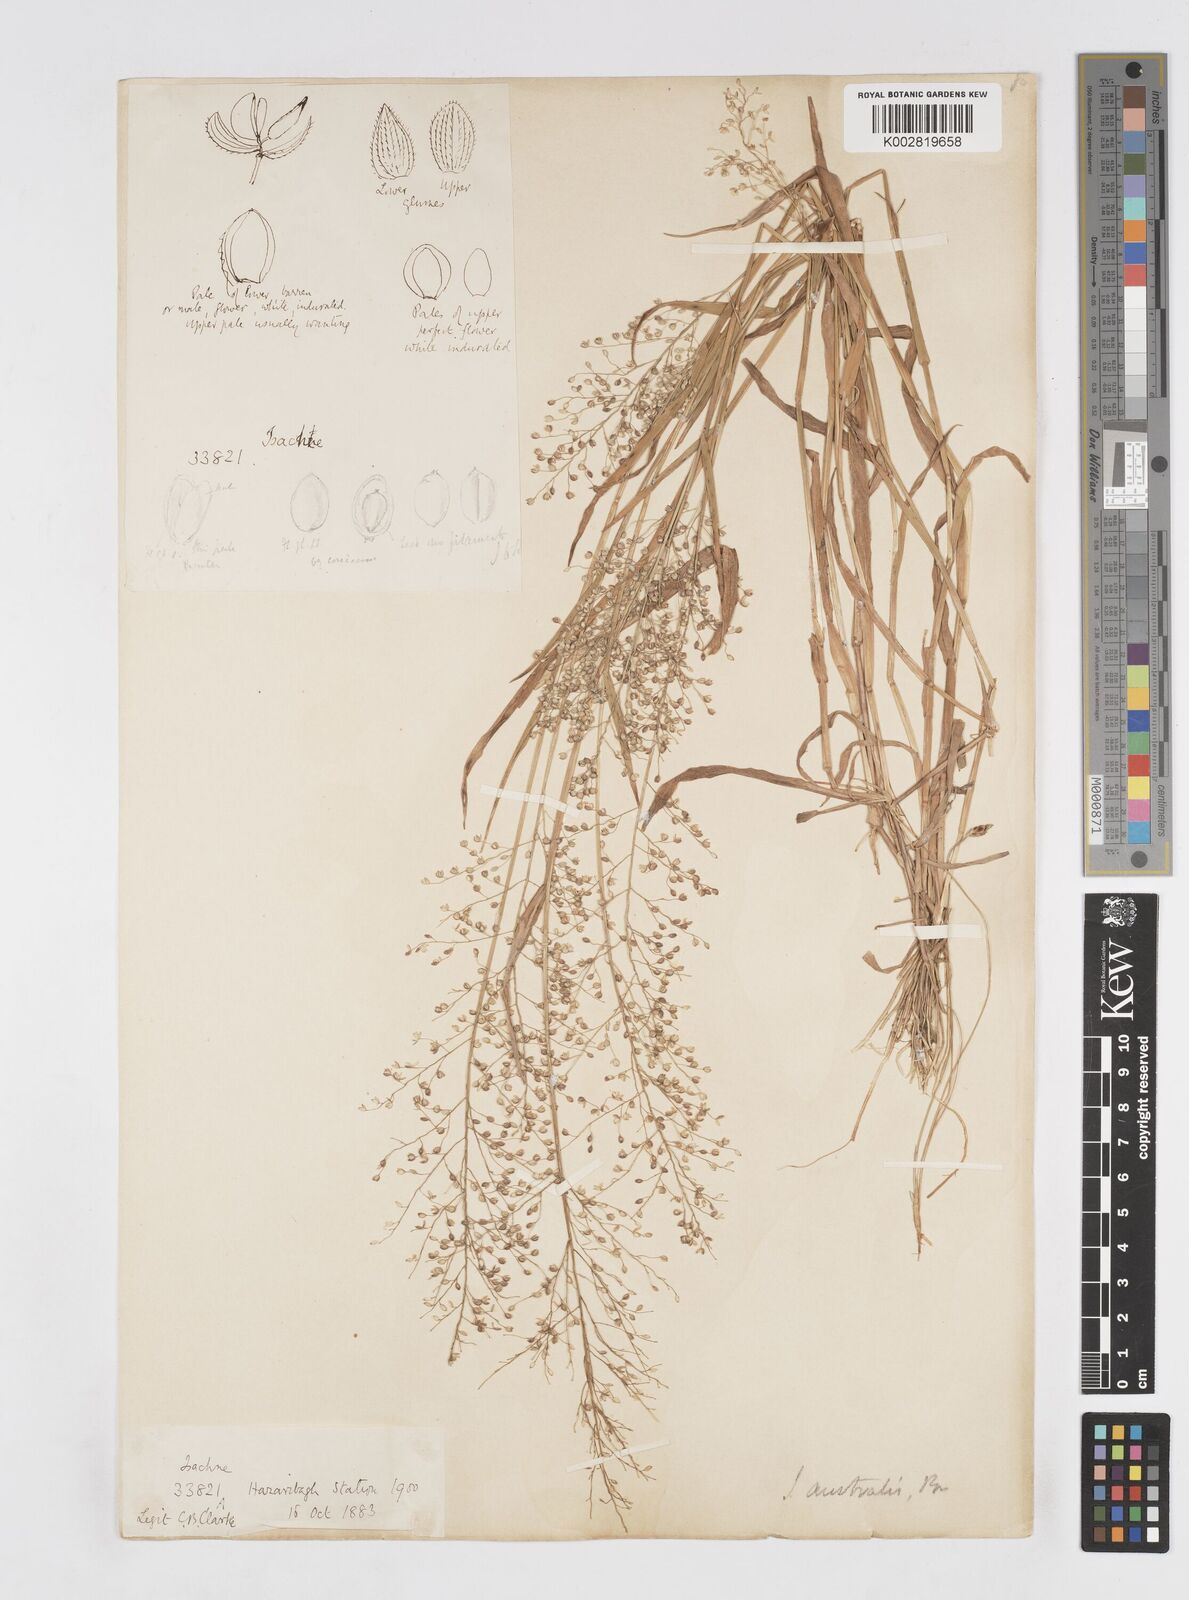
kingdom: Plantae
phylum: Tracheophyta
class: Liliopsida
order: Poales
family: Poaceae
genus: Isachne
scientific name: Isachne globosa
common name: Swamp millet
